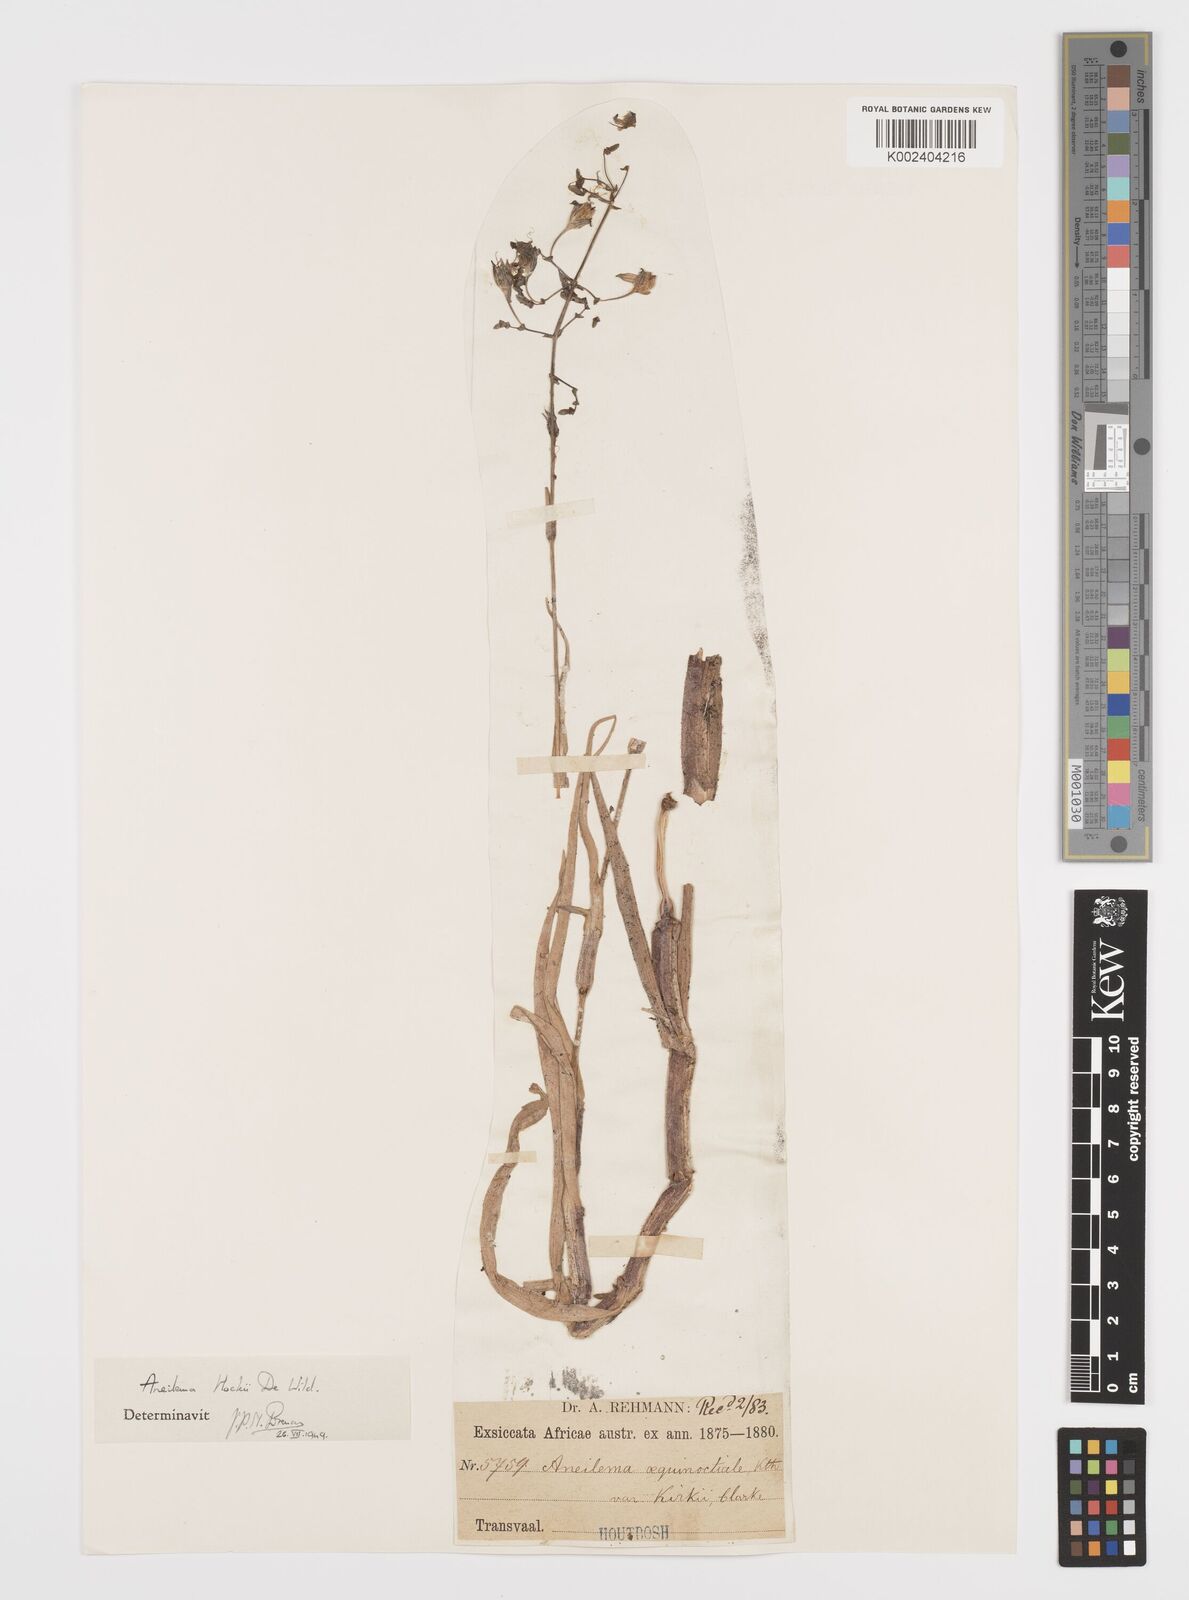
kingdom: Plantae
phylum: Tracheophyta
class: Liliopsida
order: Commelinales
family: Commelinaceae
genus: Aneilema
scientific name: Aneilema hockii
